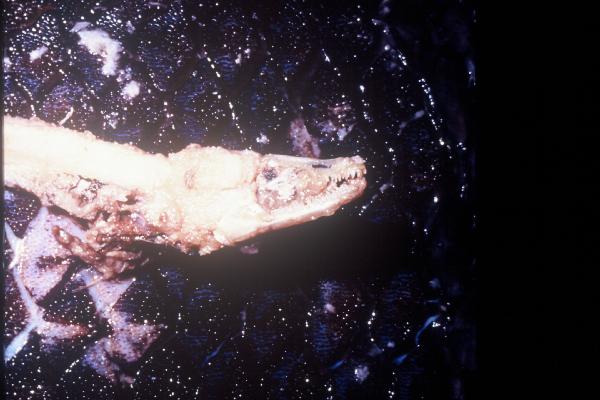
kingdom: Animalia
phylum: Chordata
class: Coelacanthi
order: Coelacanthiformes
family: Latimeriidae
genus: Latimeria
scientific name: Latimeria chalumnae
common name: Coelacanth
